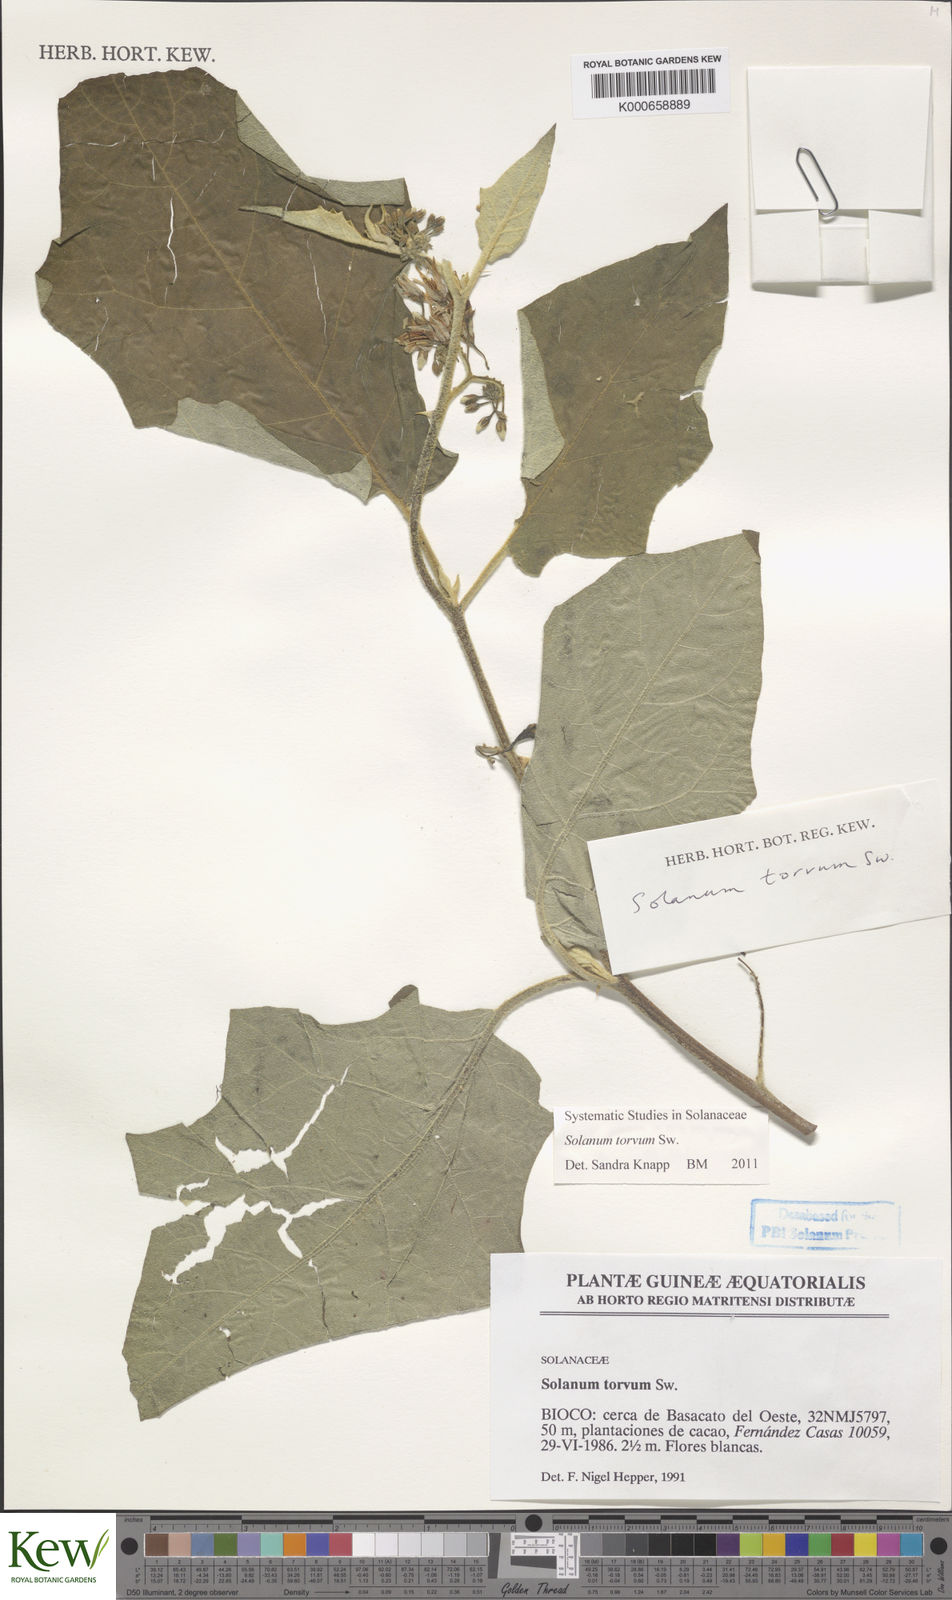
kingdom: Plantae
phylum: Tracheophyta
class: Magnoliopsida
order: Solanales
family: Solanaceae
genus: Solanum
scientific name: Solanum torvum
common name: Turkey berry
